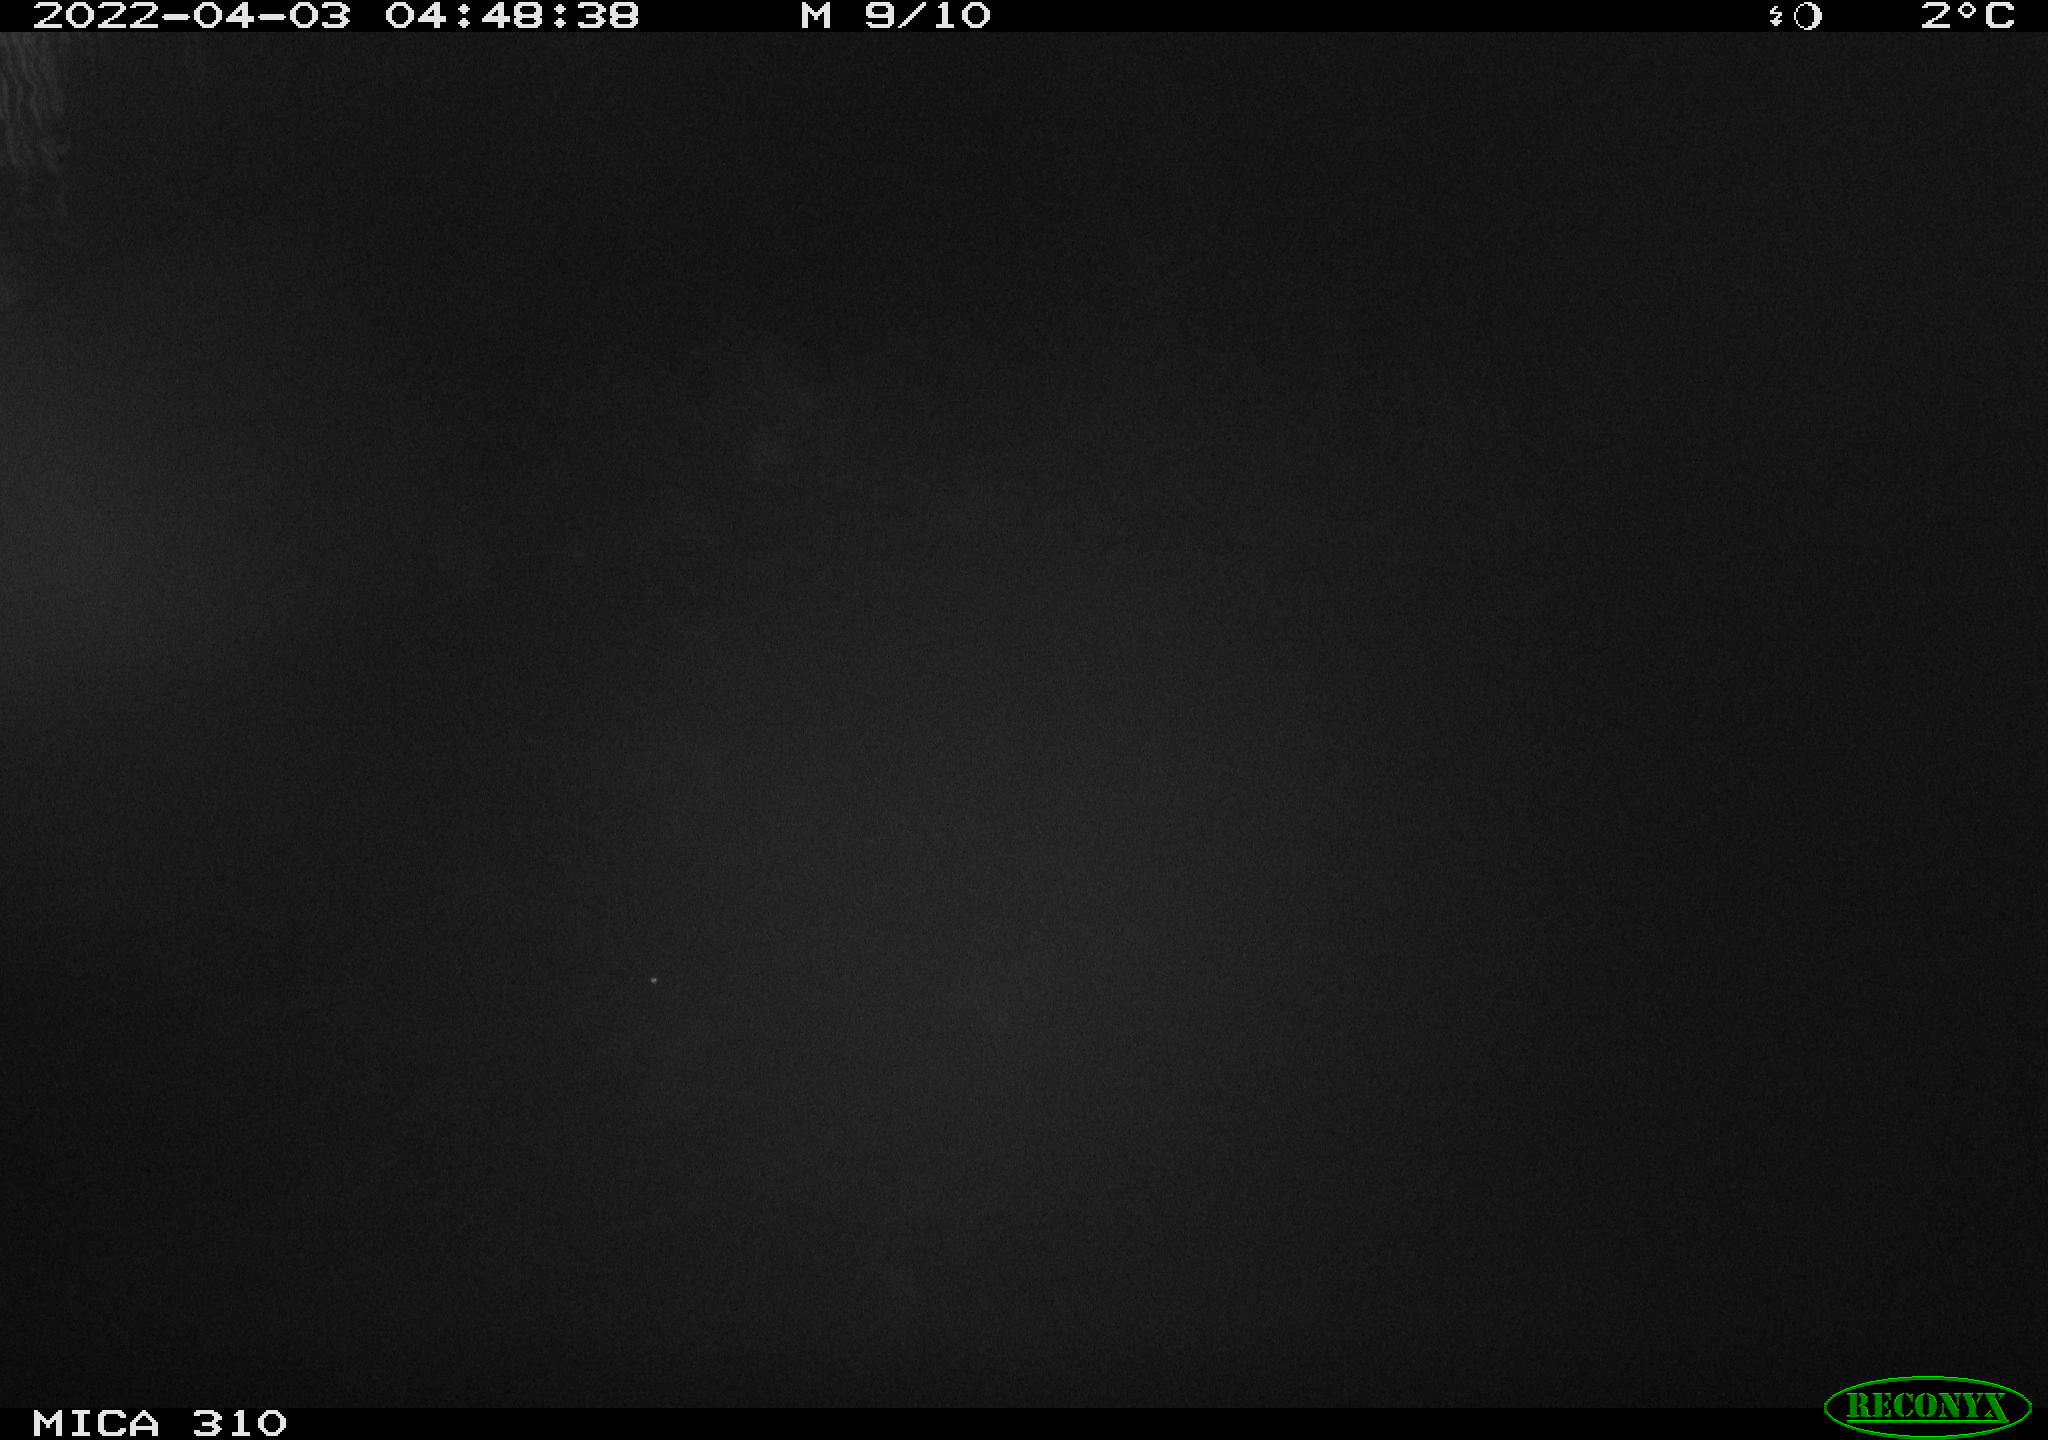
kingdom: Animalia
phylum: Chordata
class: Aves
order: Anseriformes
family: Anatidae
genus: Anas
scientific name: Anas platyrhynchos
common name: Mallard
